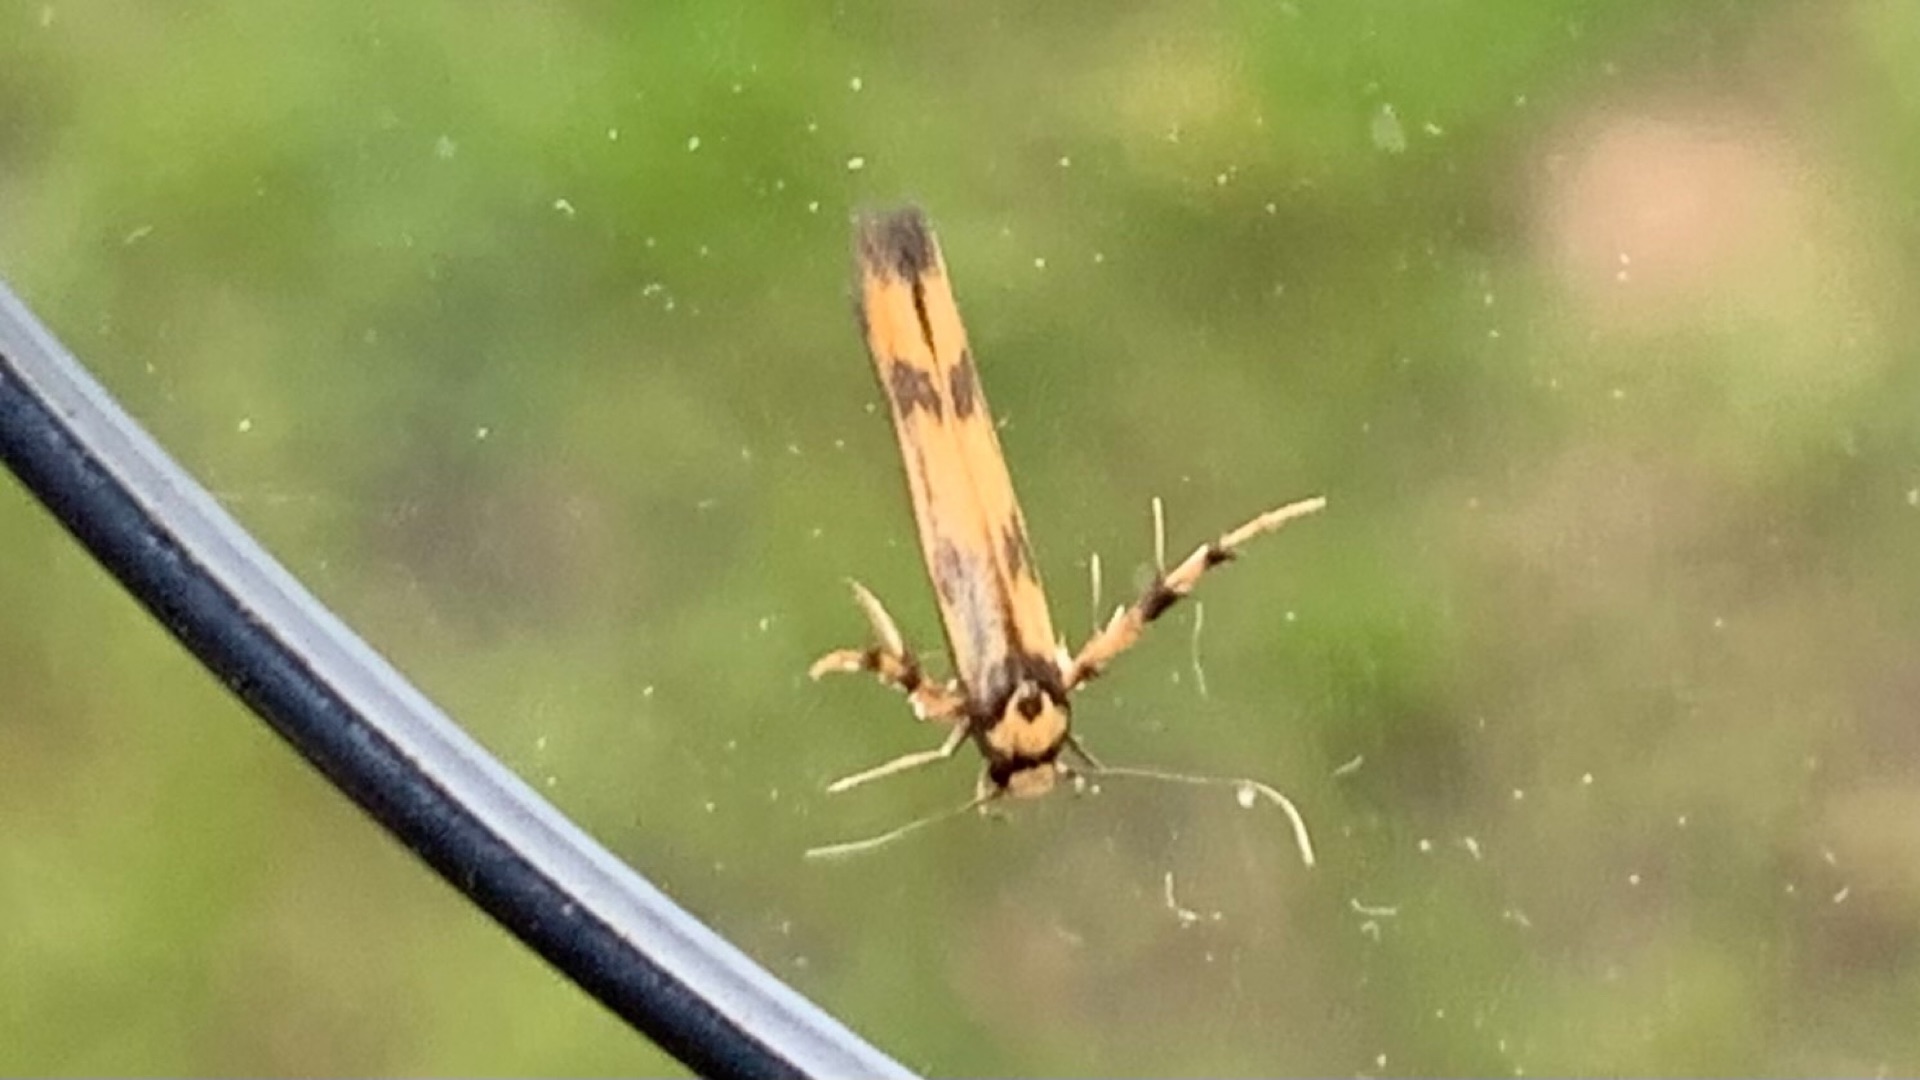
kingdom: Animalia
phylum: Arthropoda
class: Insecta
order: Lepidoptera
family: Stathmopodidae
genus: Stathmopoda
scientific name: Stathmopoda pedella
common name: Strittende ellemøl
